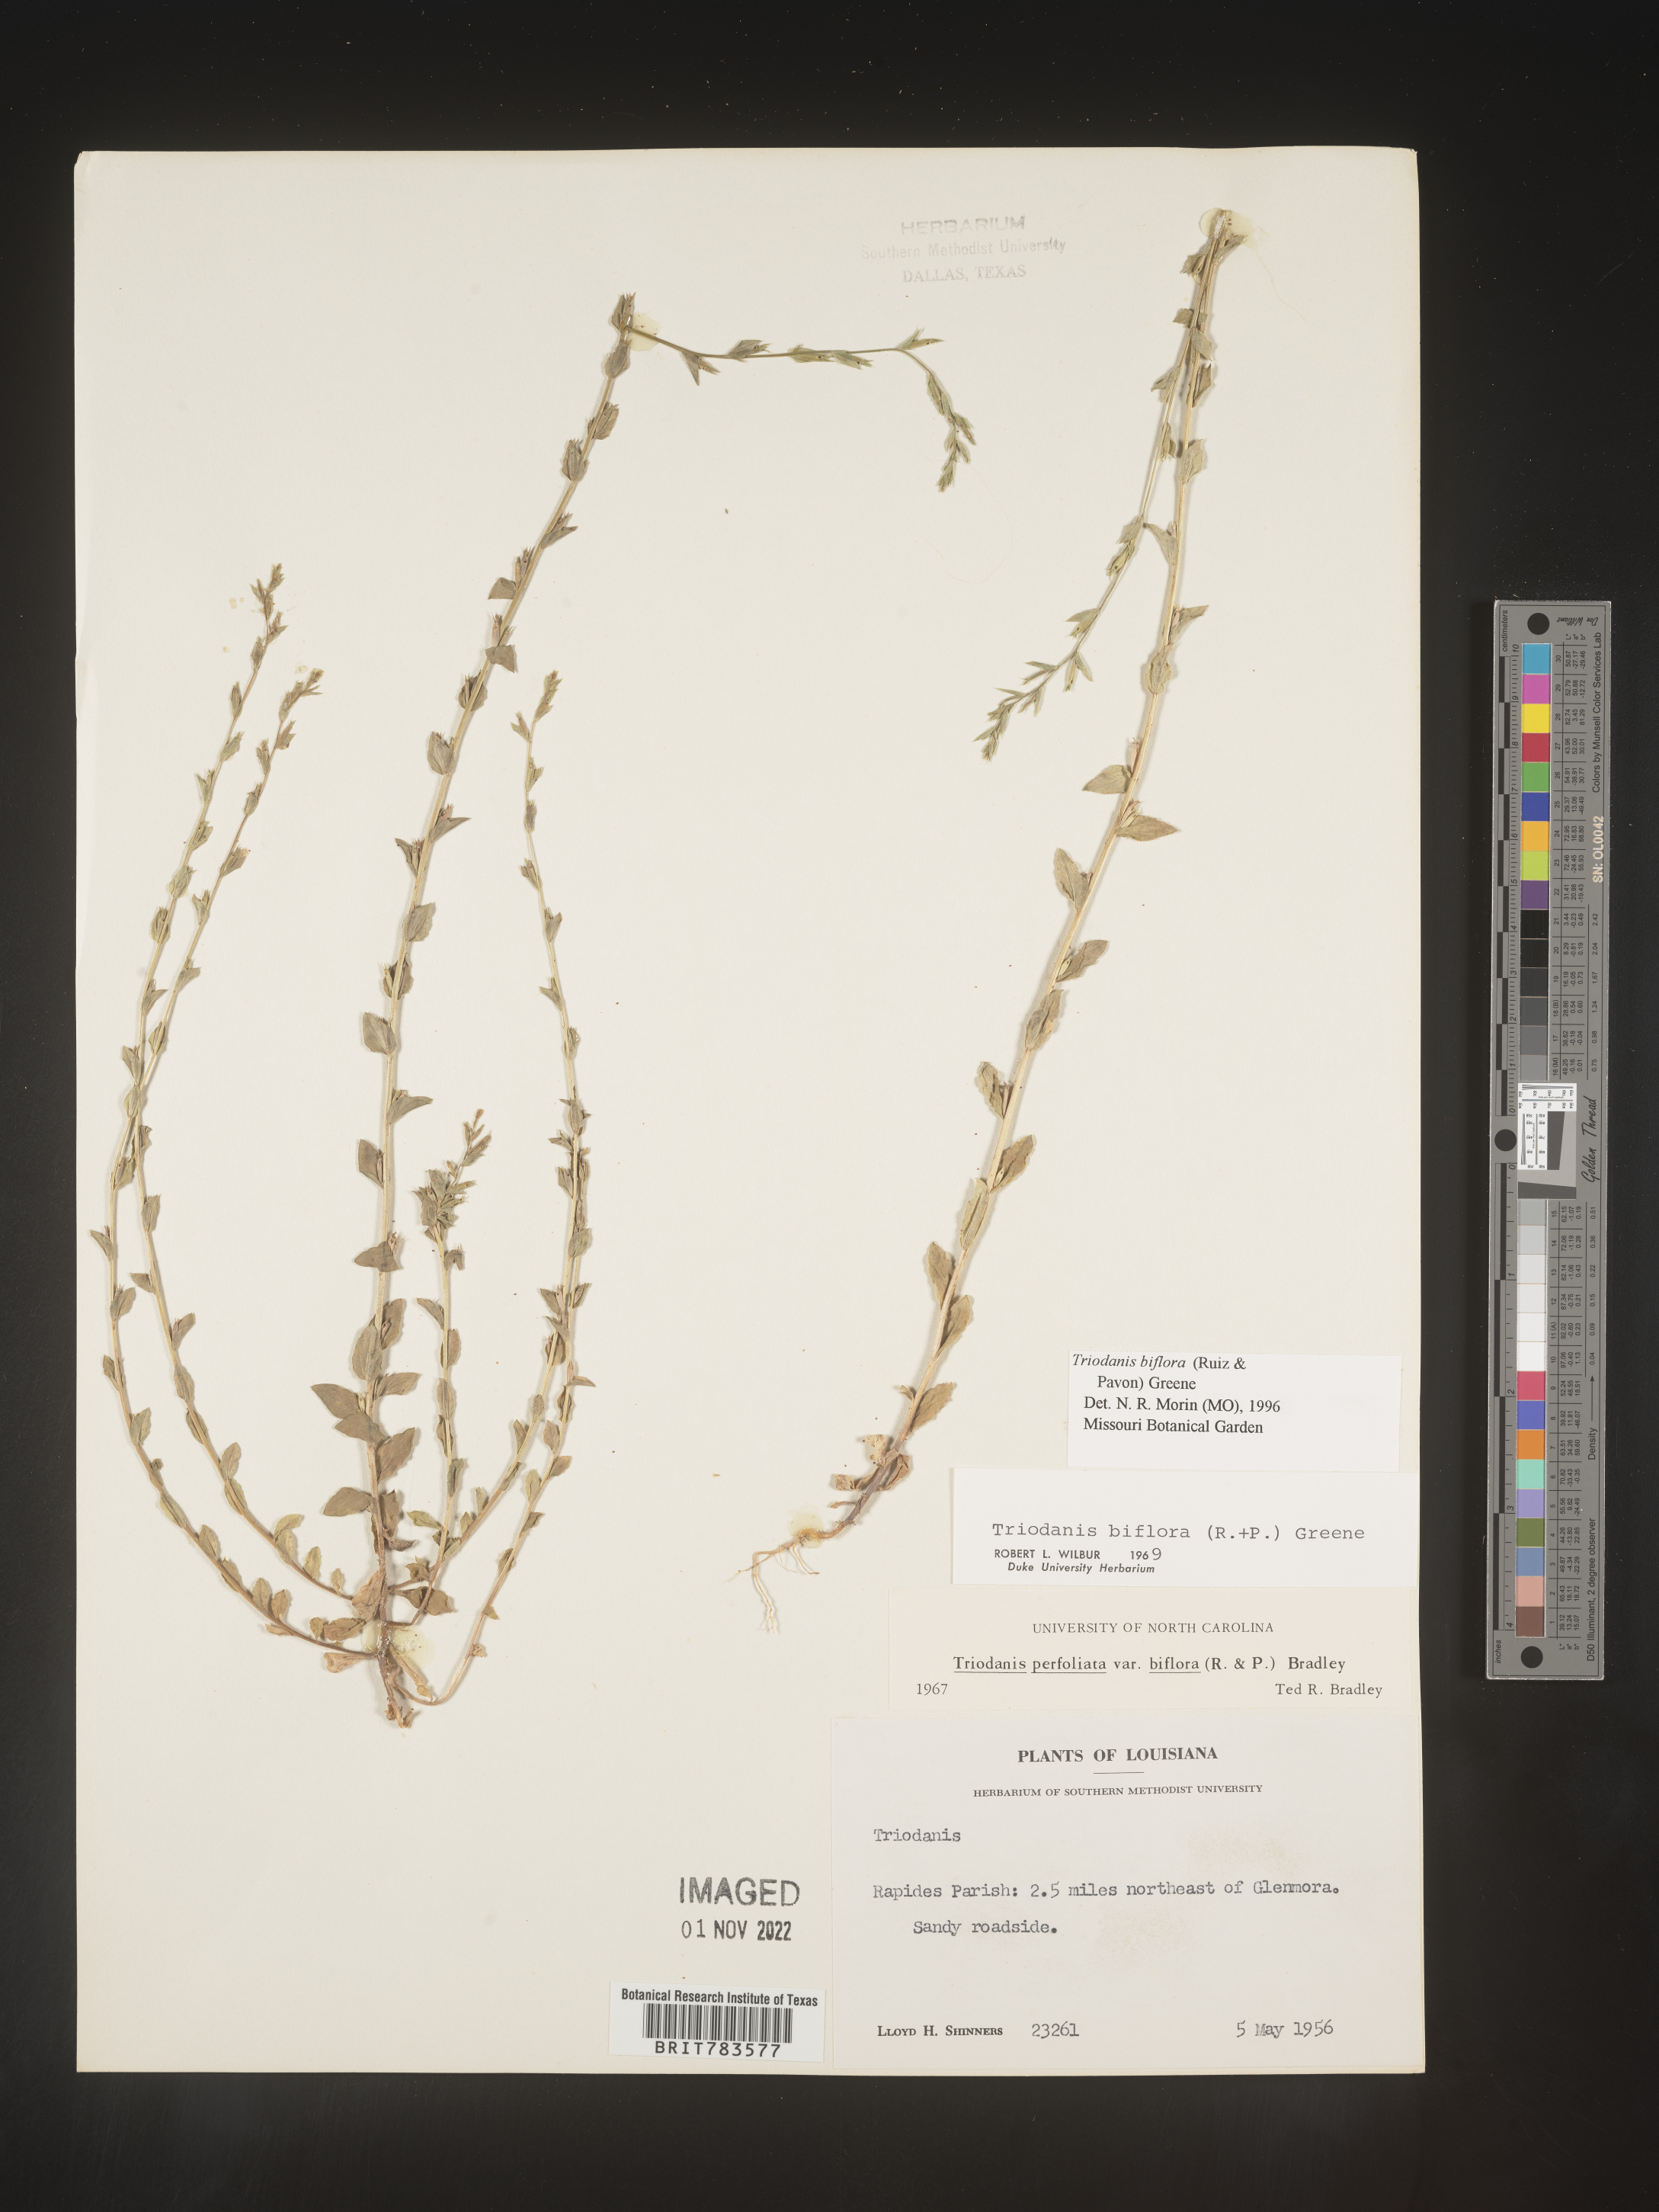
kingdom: Plantae
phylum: Tracheophyta
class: Magnoliopsida
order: Asterales
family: Campanulaceae
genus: Triodanis
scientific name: Triodanis perfoliata
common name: Clasping venus' looking-glass
